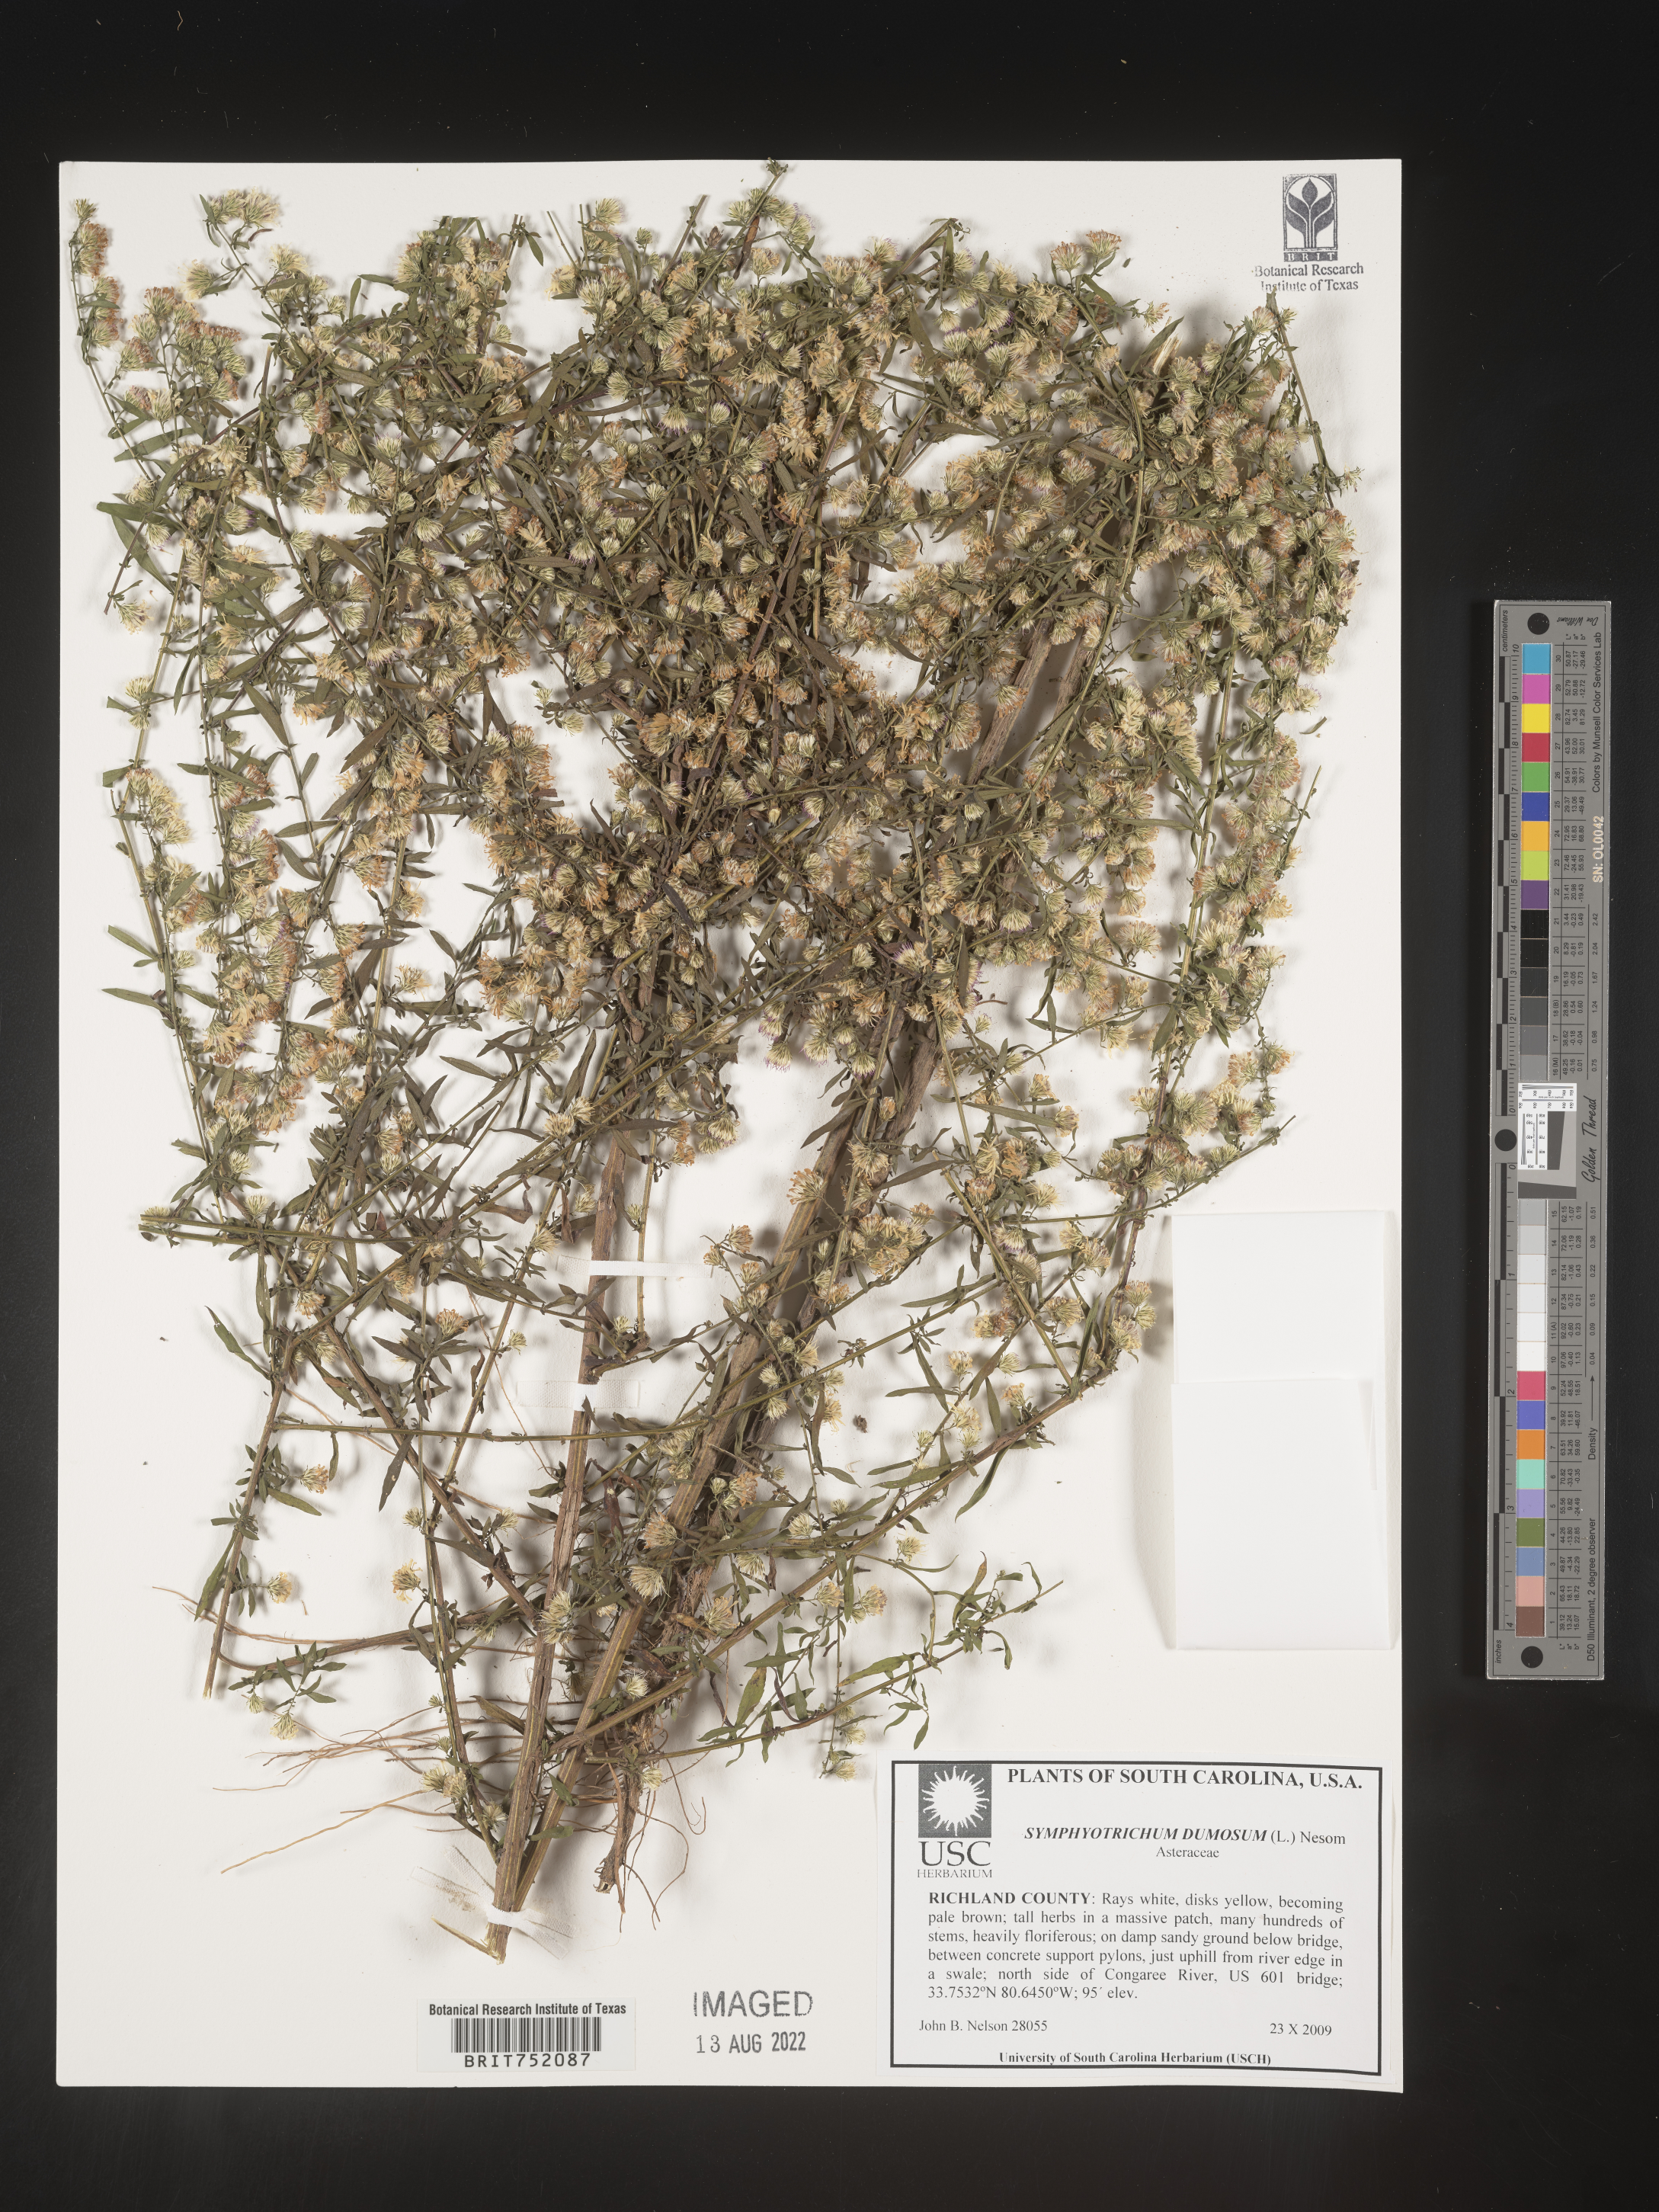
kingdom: Plantae
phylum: Tracheophyta
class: Magnoliopsida
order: Asterales
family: Asteraceae
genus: Symphyotrichum
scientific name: Symphyotrichum dumosum
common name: Bushy aster
